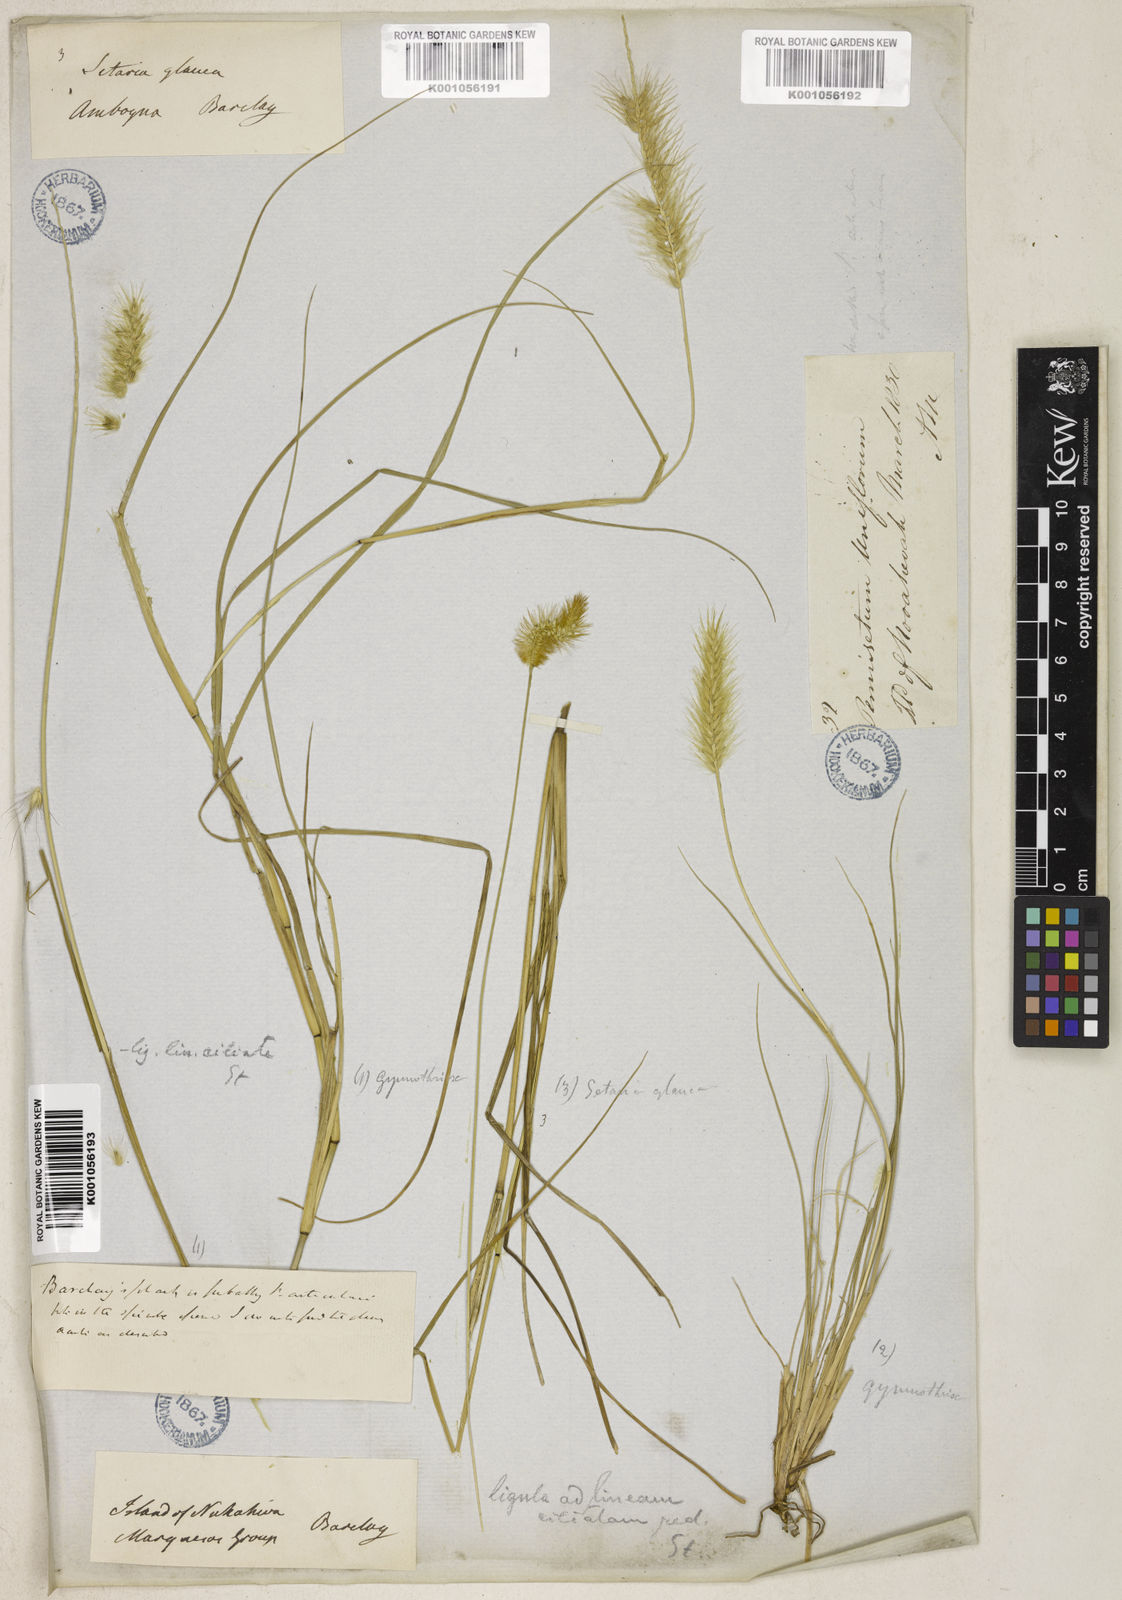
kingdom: Plantae
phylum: Tracheophyta
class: Liliopsida
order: Poales
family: Poaceae
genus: Cenchrus
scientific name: Cenchrus articularis
